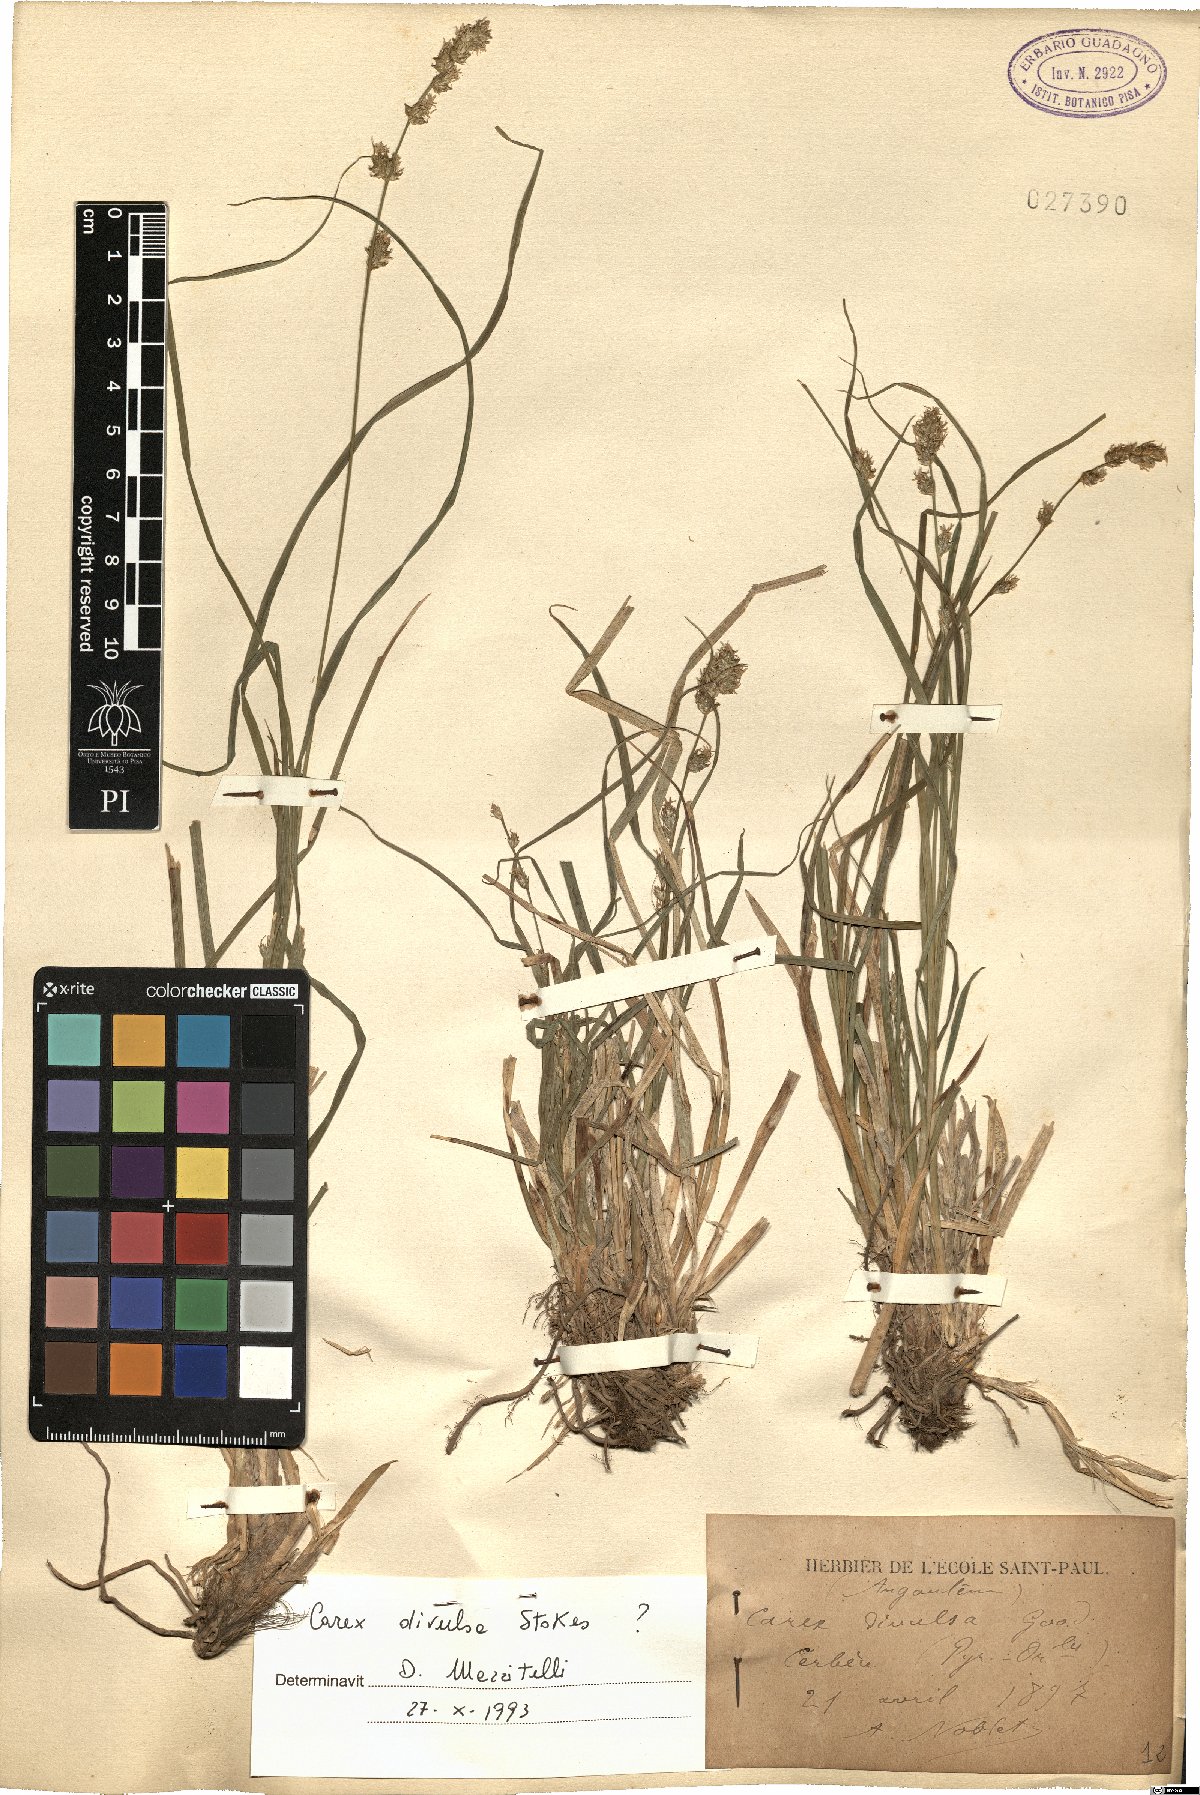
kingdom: Plantae
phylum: Tracheophyta
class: Liliopsida
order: Poales
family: Cyperaceae
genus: Carex
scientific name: Carex divulsa
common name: Grassland sedge
